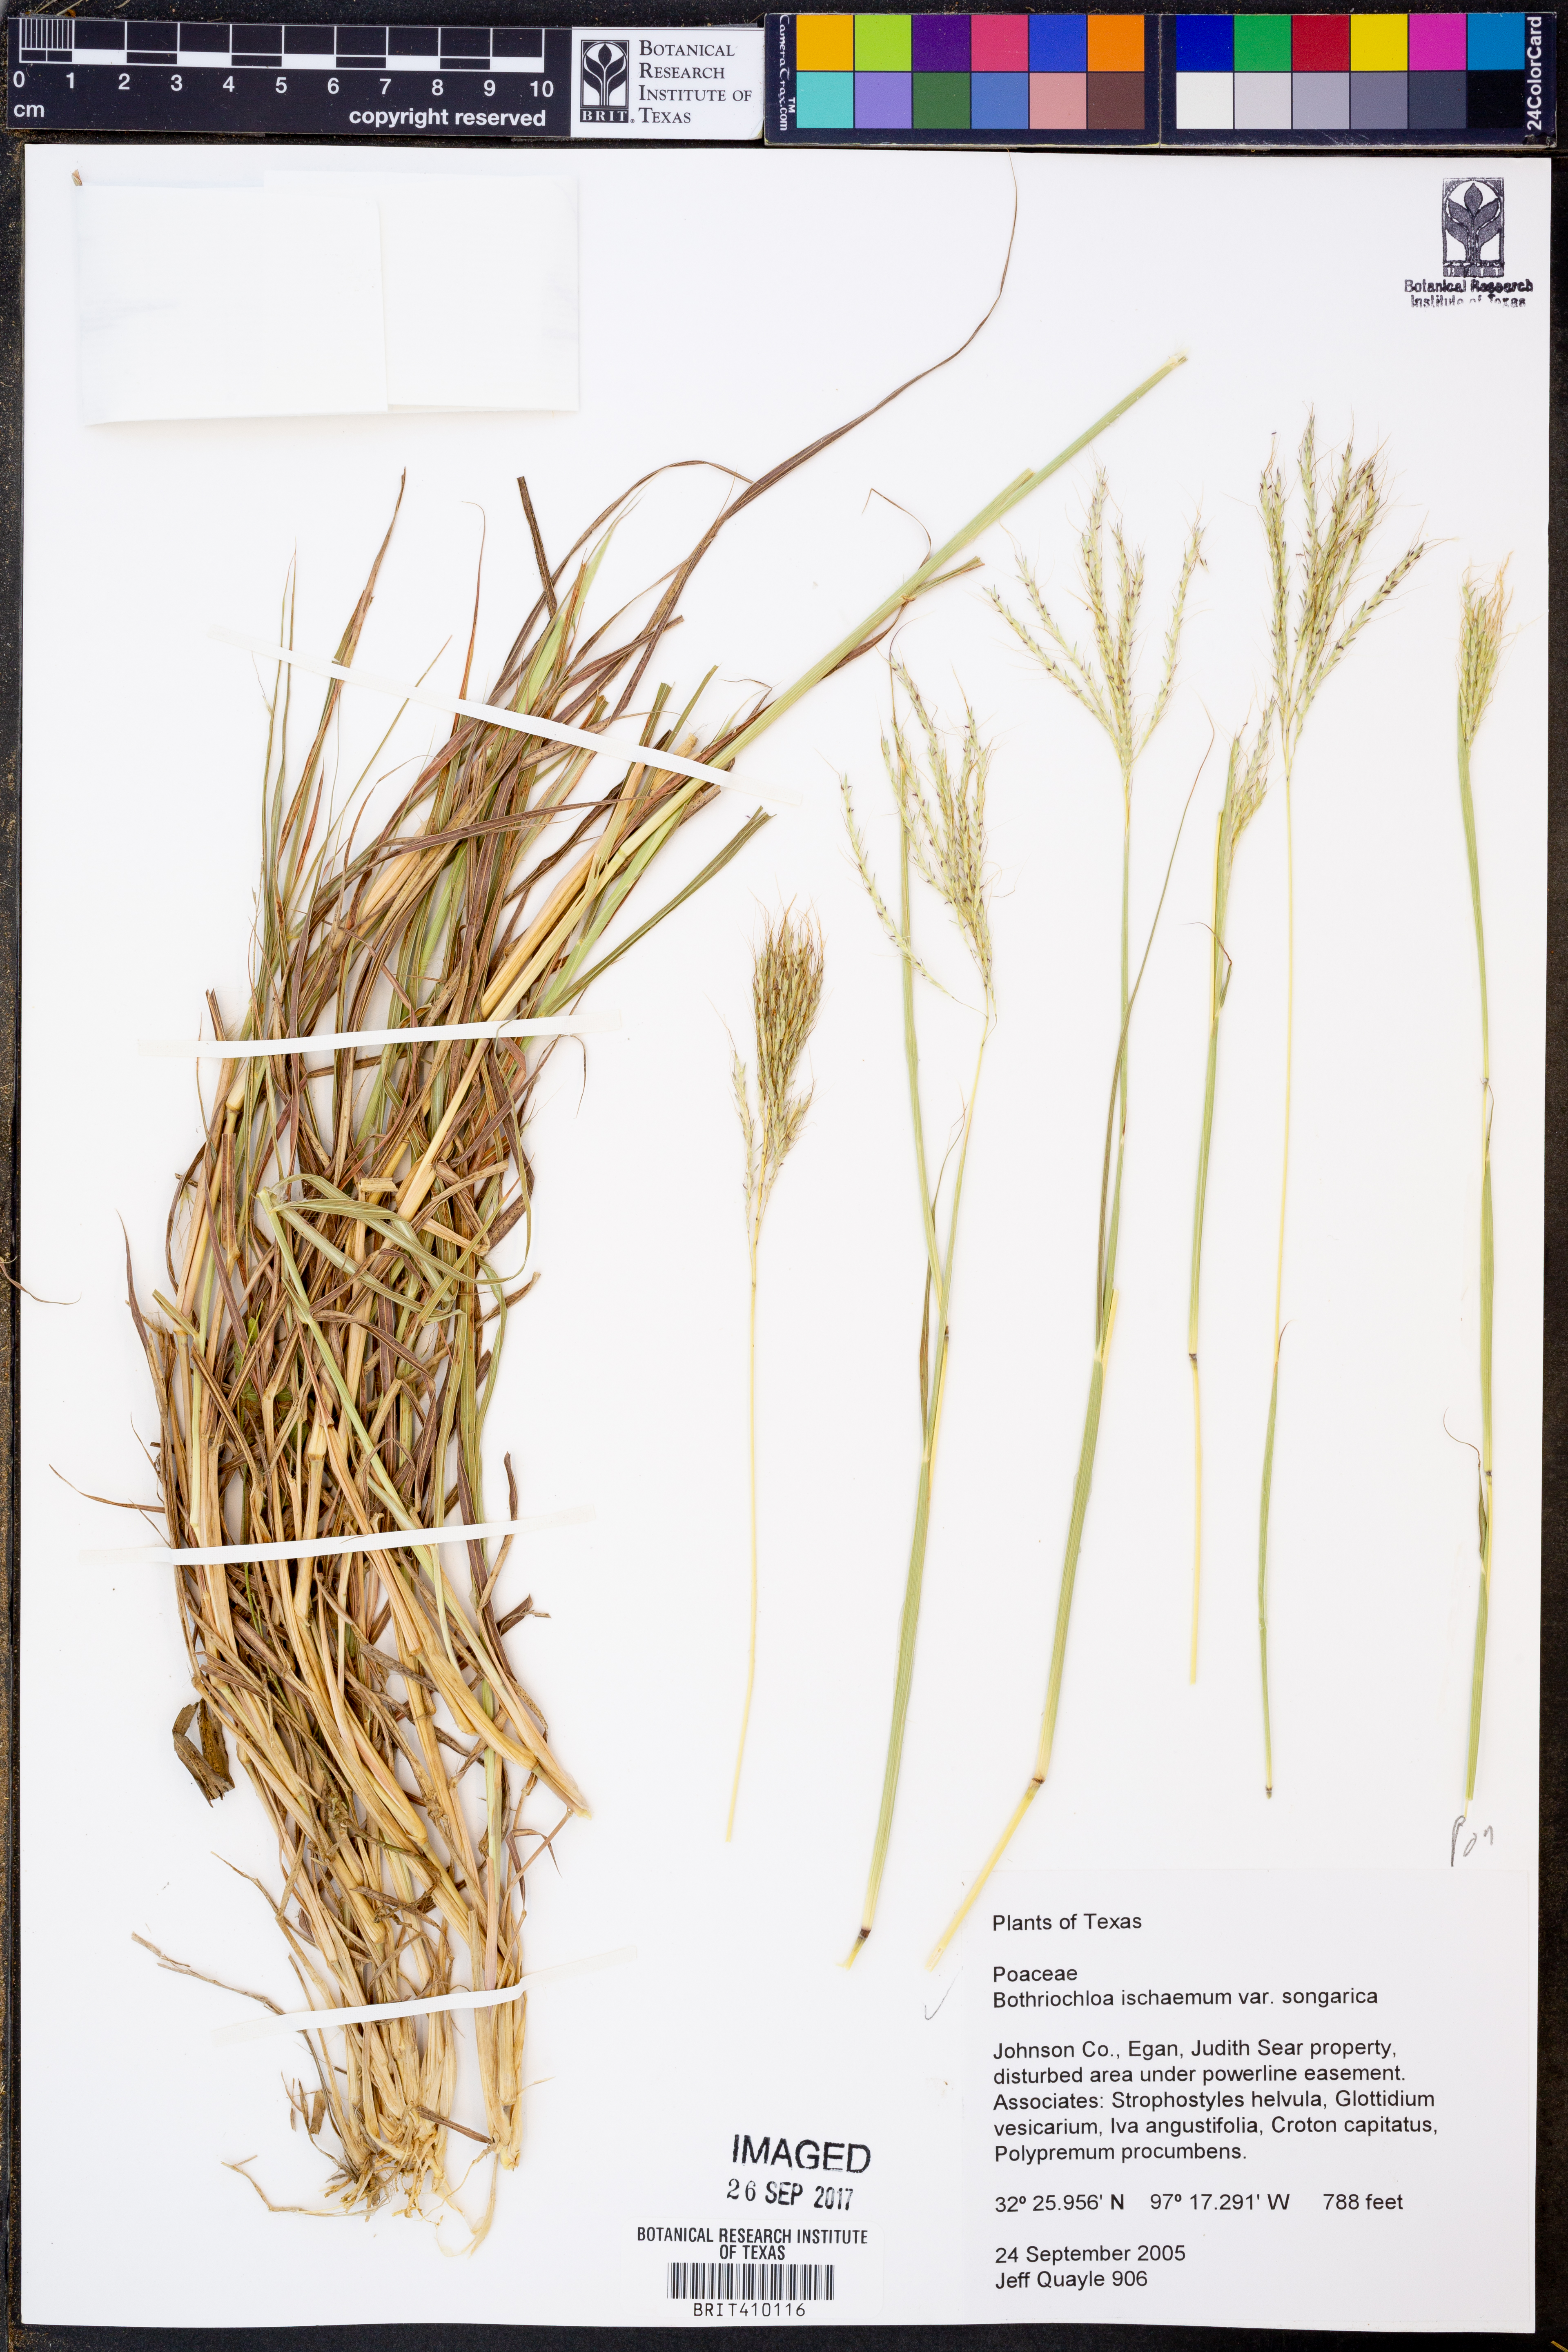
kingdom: Plantae
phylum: Tracheophyta
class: Liliopsida
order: Poales
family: Poaceae
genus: Bothriochloa
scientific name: Bothriochloa ischaemum
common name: Yellow bluestem
